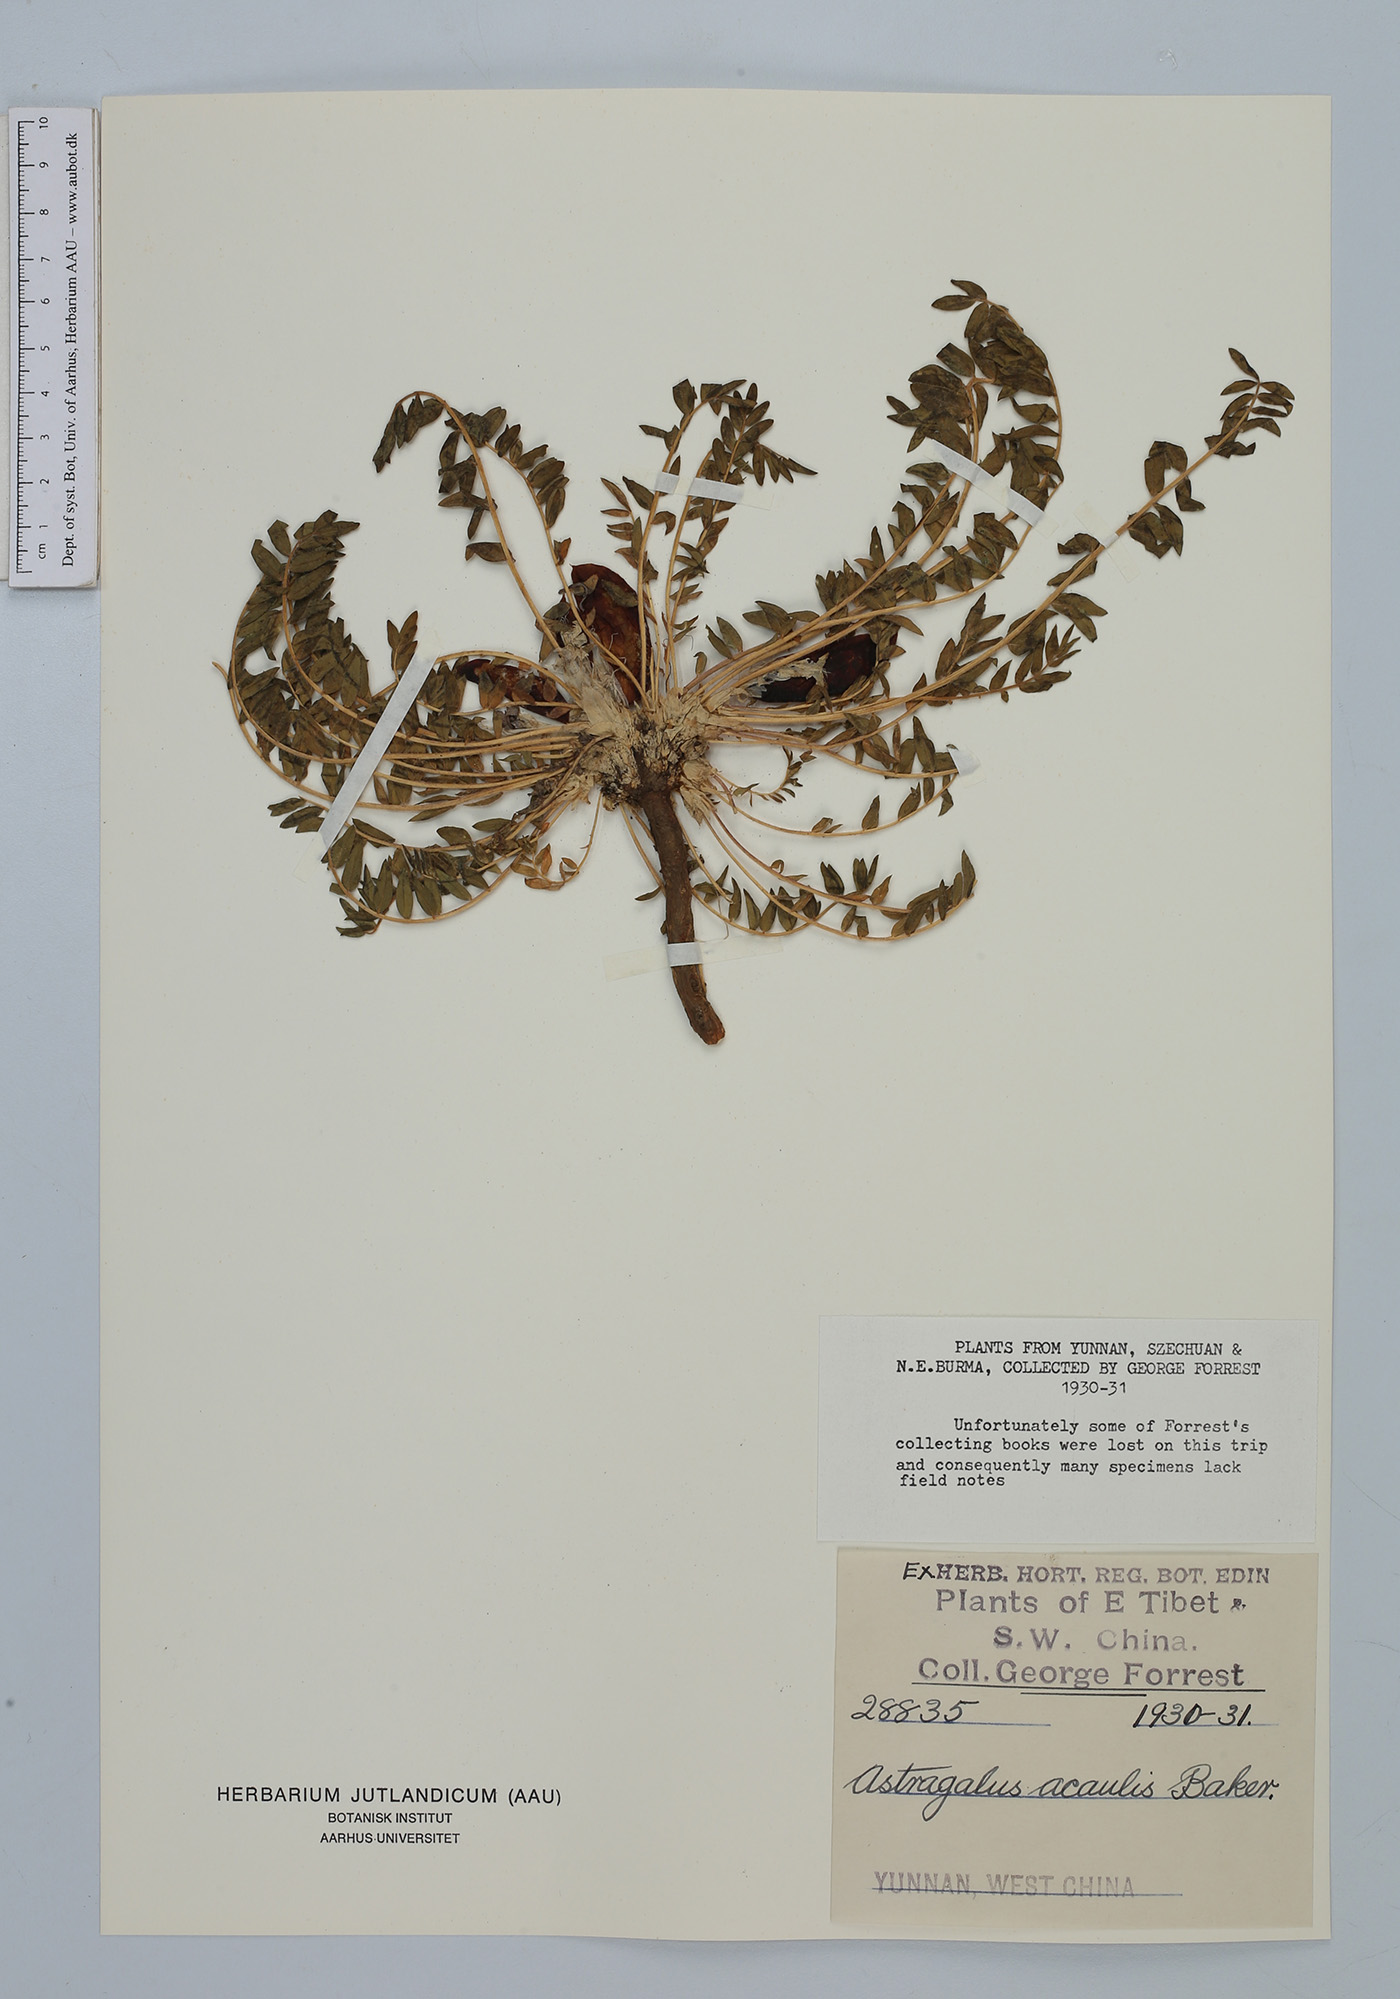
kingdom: Plantae
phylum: Tracheophyta
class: Magnoliopsida
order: Fabales
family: Fabaceae
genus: Astragalus
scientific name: Astragalus acaulis
